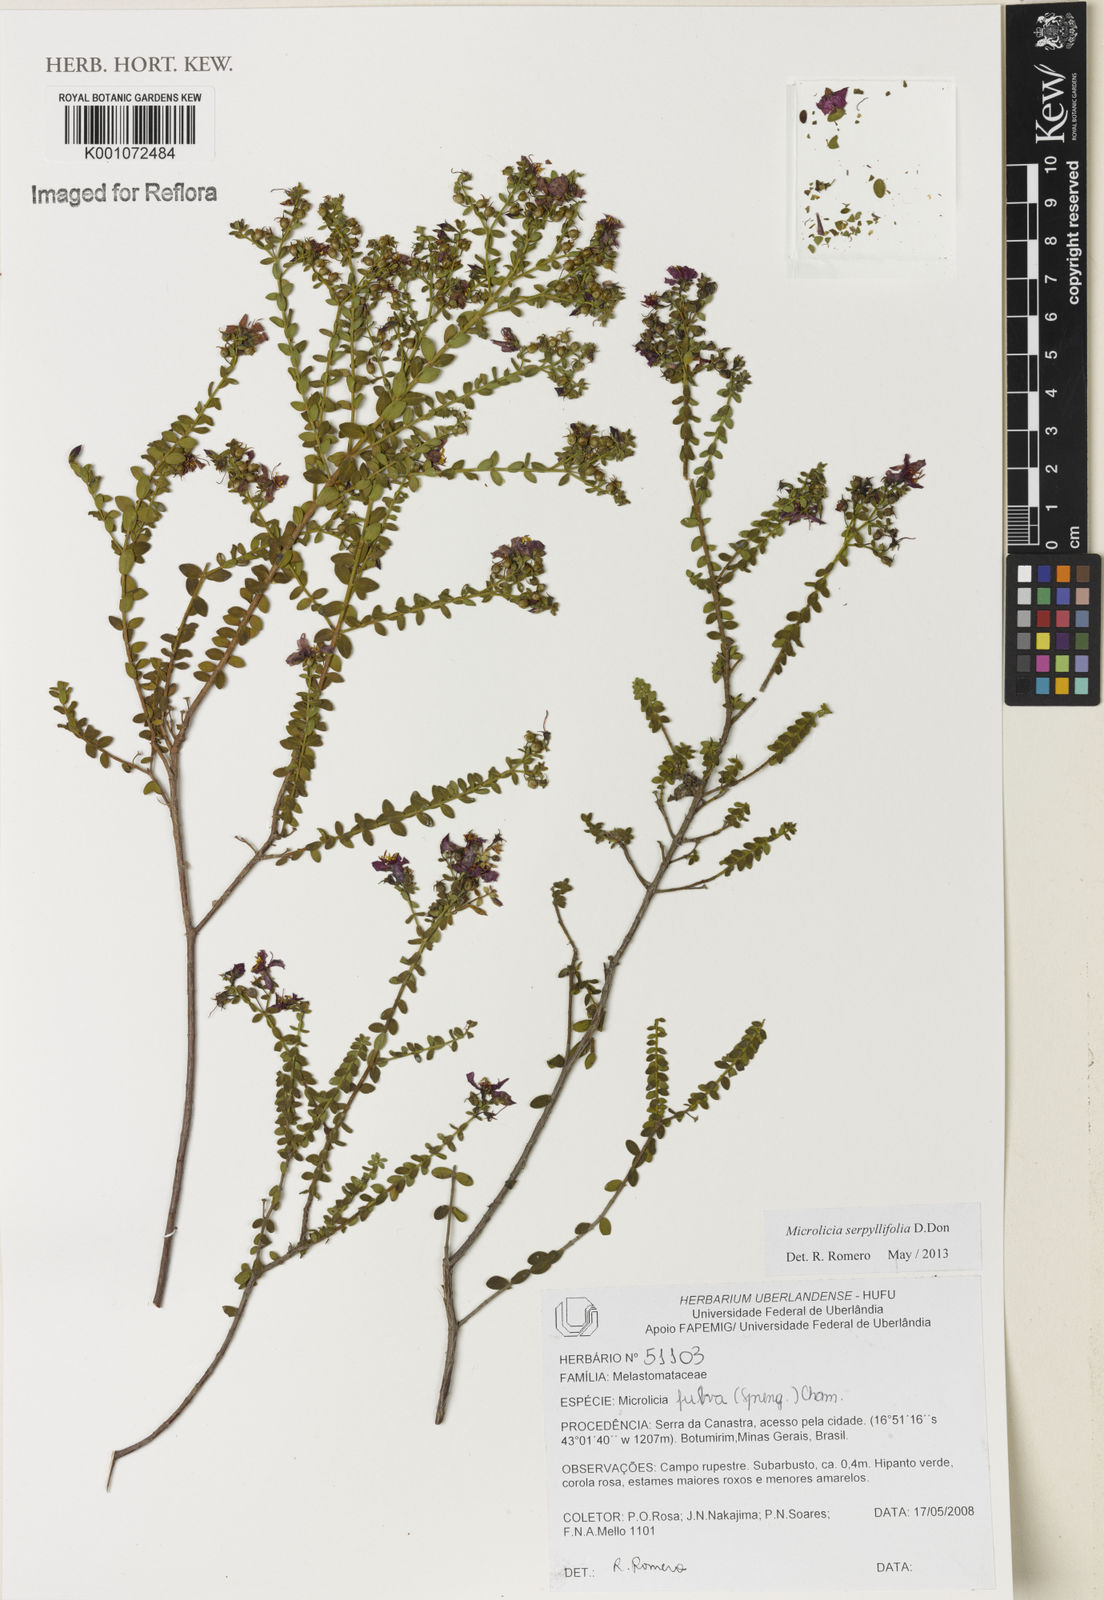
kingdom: Plantae
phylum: Tracheophyta
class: Magnoliopsida
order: Myrtales
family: Melastomataceae
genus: Microlicia
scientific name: Microlicia fulva
